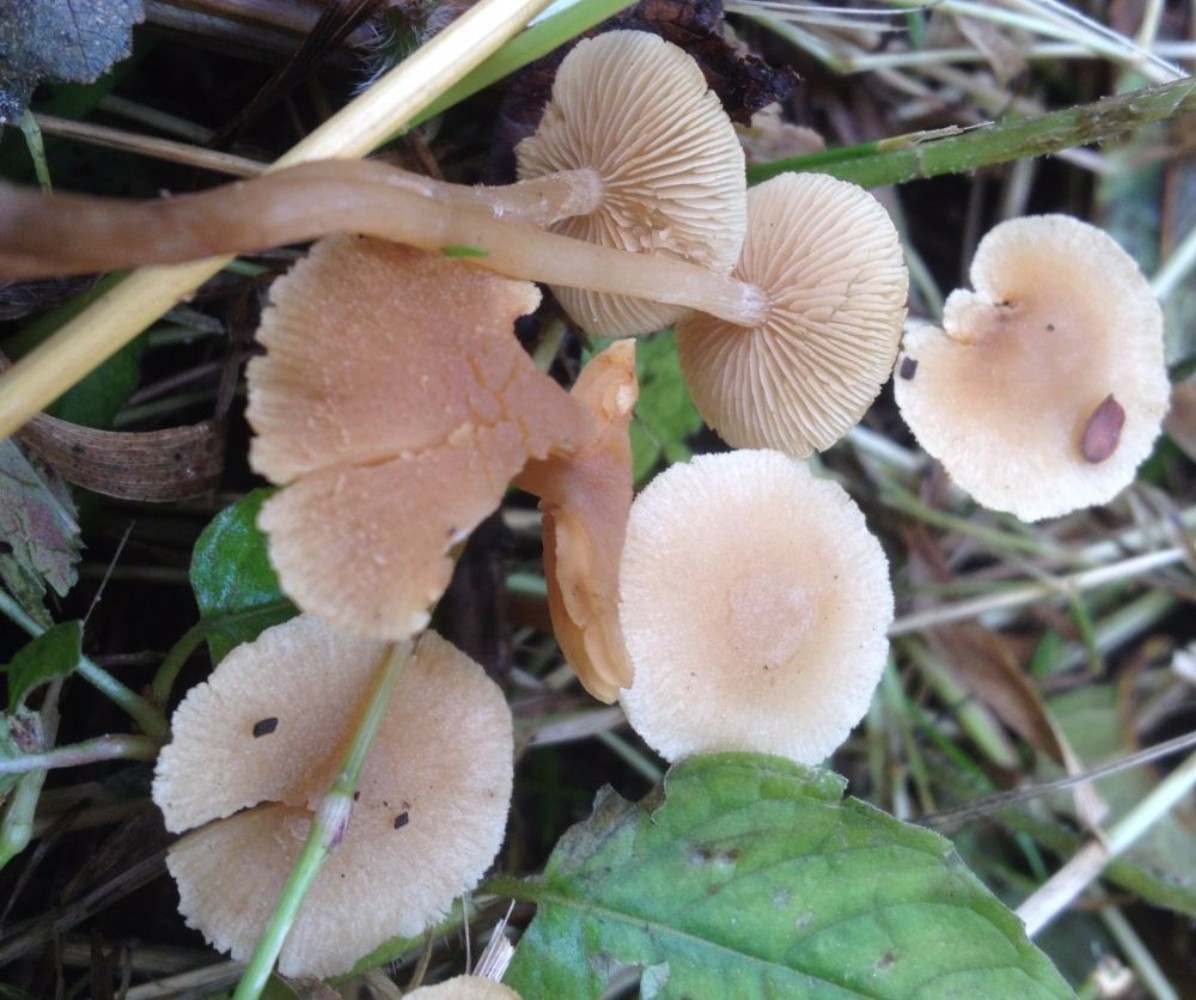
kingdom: Fungi
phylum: Basidiomycota
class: Agaricomycetes
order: Agaricales
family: Hymenogastraceae
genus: Naucoria
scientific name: Naucoria escharioides
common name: lys elle-knaphat
